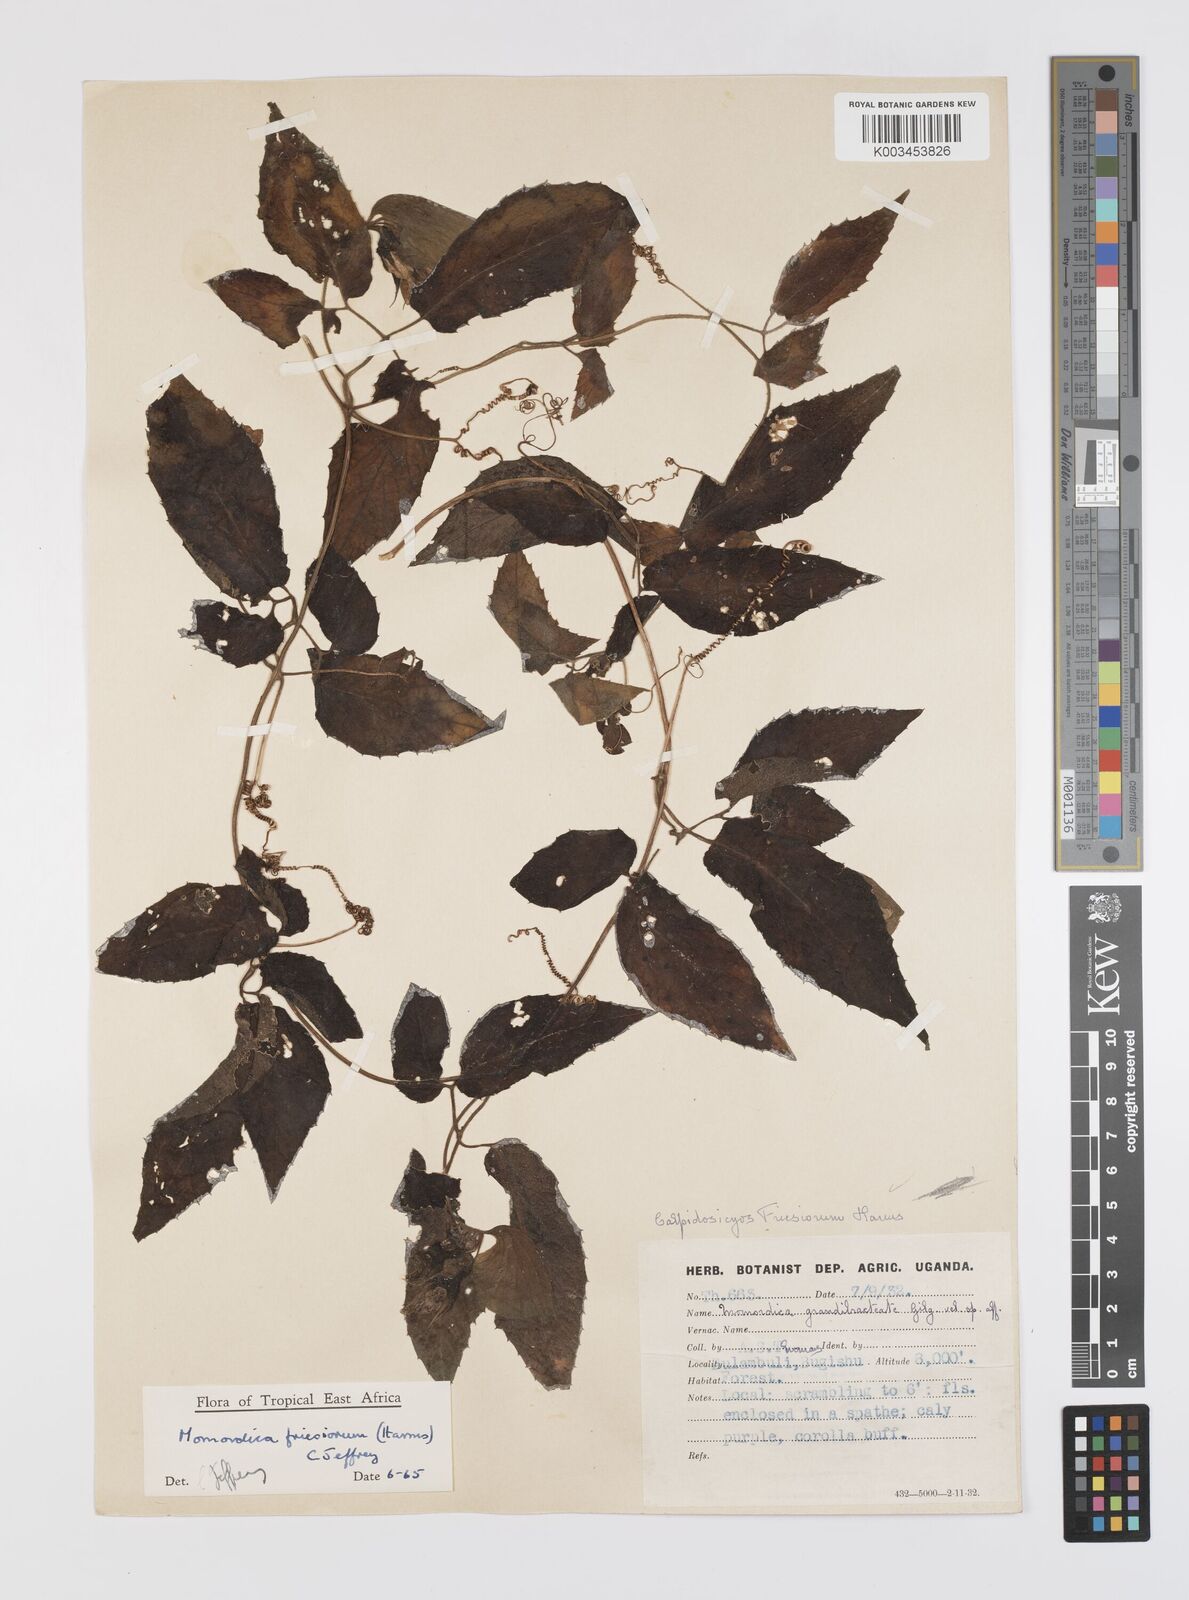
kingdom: Plantae
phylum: Tracheophyta
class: Magnoliopsida
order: Cucurbitales
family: Cucurbitaceae
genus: Momordica
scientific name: Momordica friesiorum
